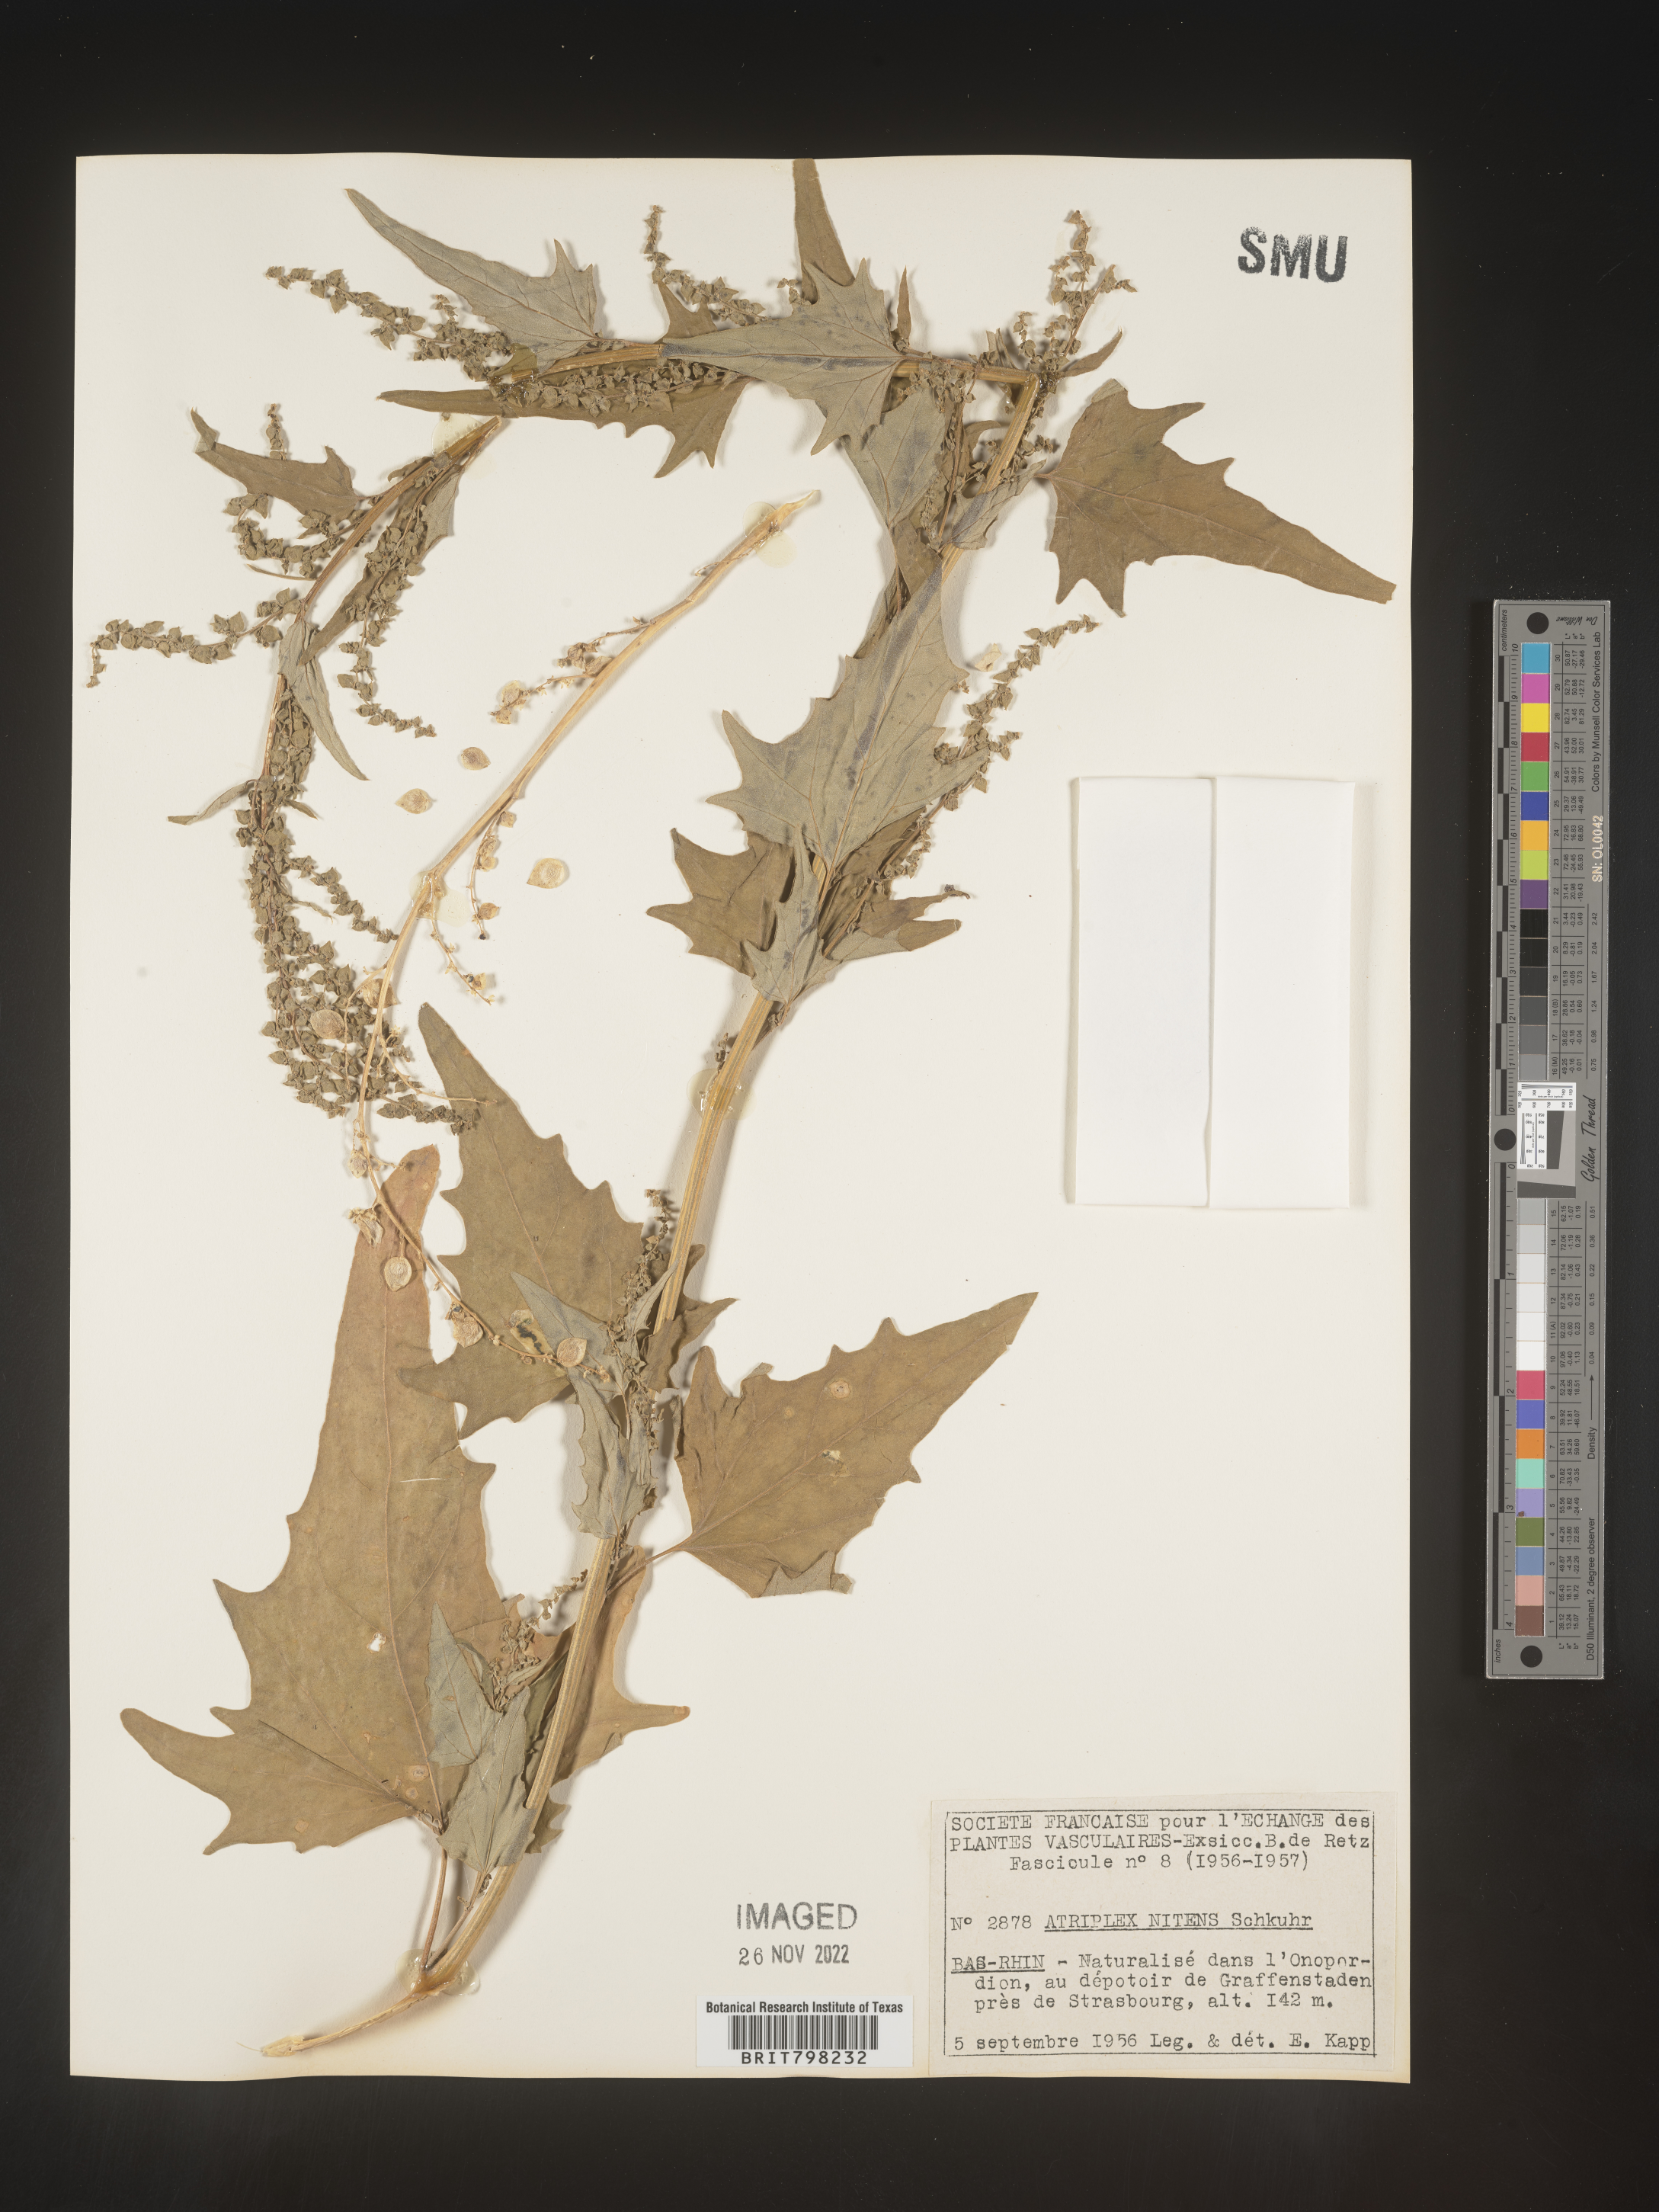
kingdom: Plantae
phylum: Tracheophyta
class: Magnoliopsida
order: Caryophyllales
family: Amaranthaceae
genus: Atriplex
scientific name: Atriplex
